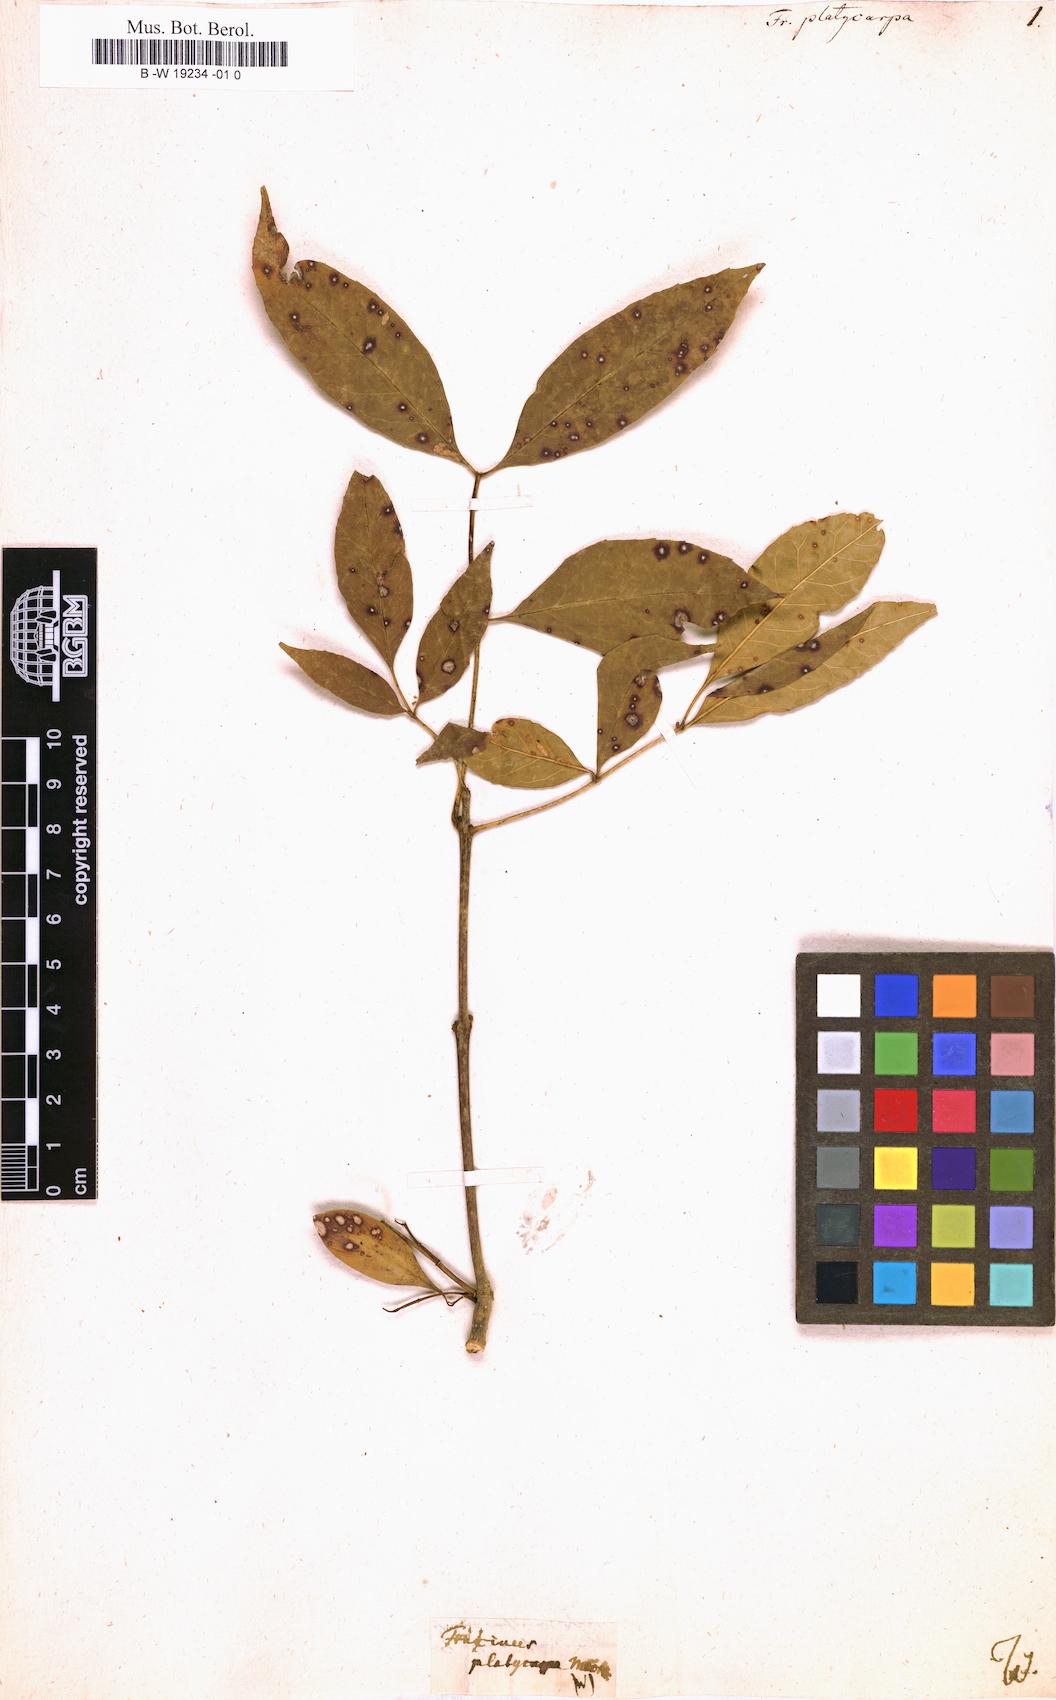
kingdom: Plantae
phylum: Tracheophyta
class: Magnoliopsida
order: Lamiales
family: Oleaceae
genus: Fraxinus
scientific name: Fraxinus caroliniana
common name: Carolina ash
